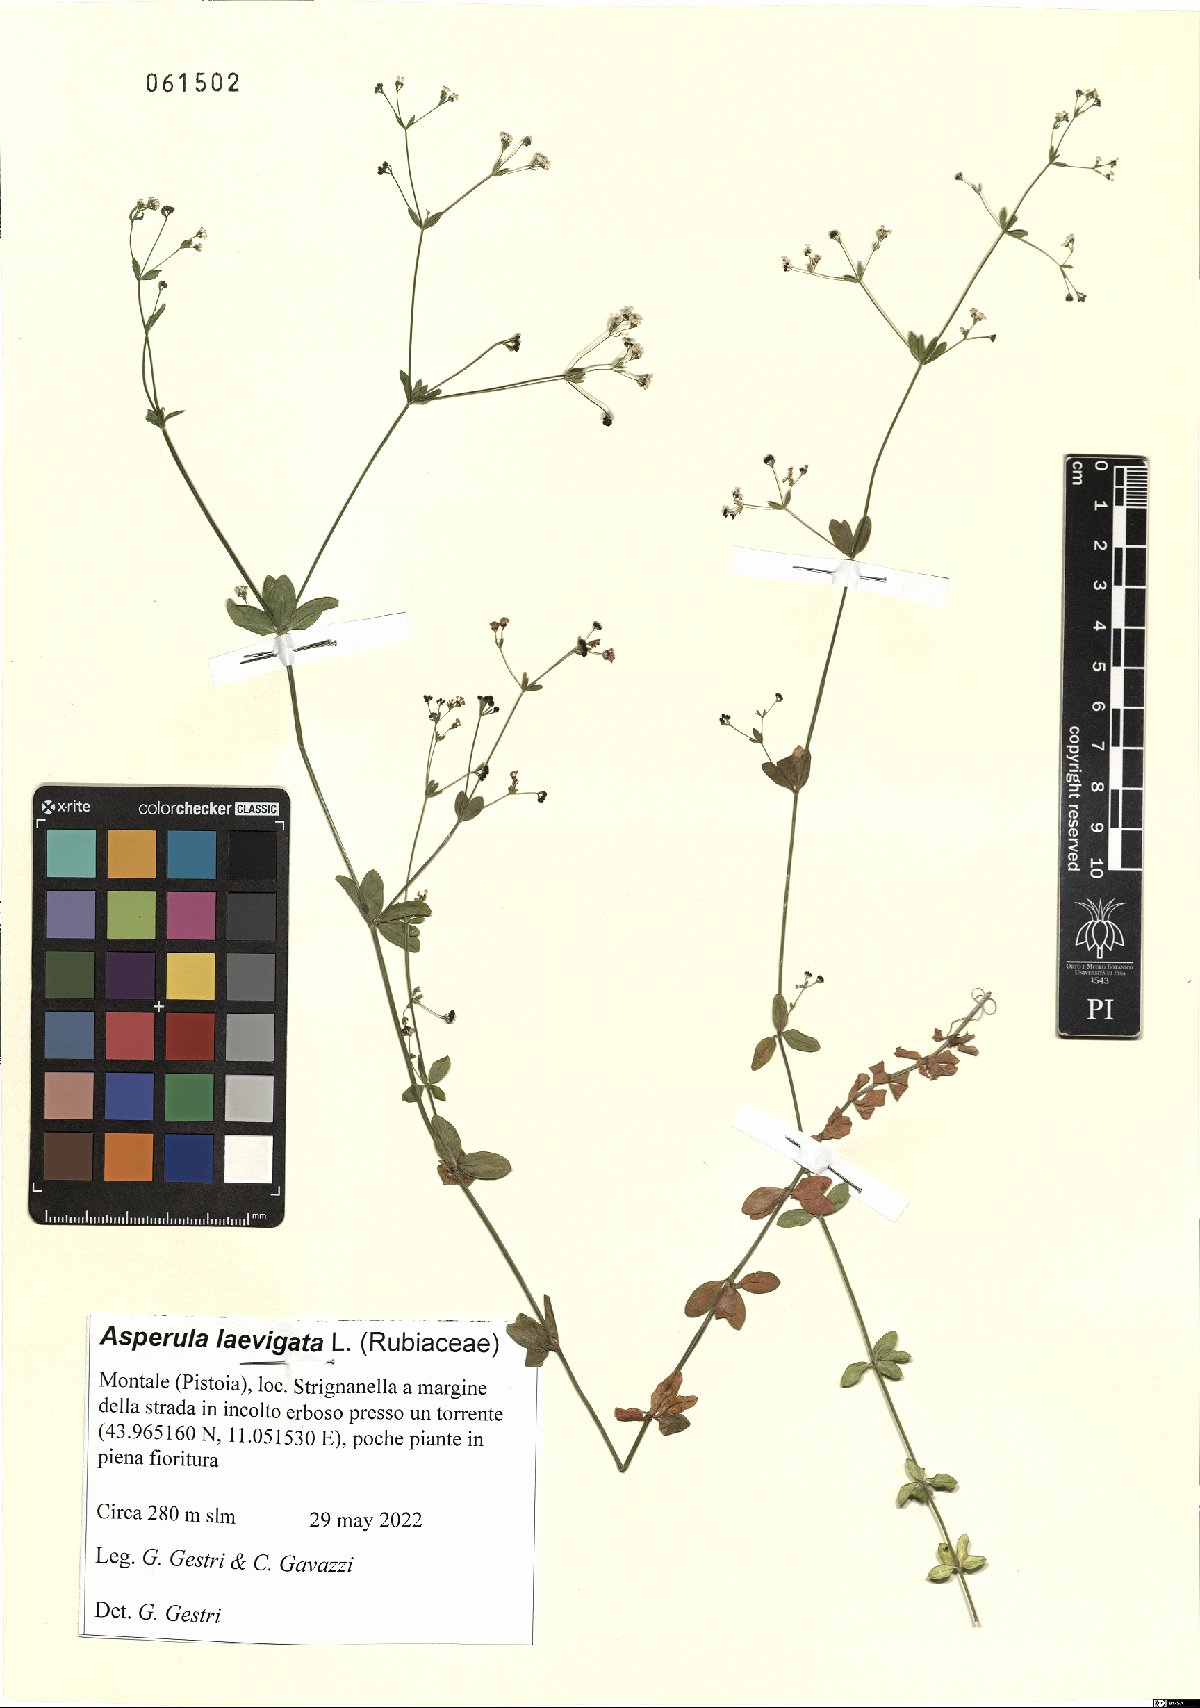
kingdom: Plantae
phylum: Tracheophyta
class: Magnoliopsida
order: Gentianales
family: Rubiaceae
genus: Asperula
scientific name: Asperula laevigata
